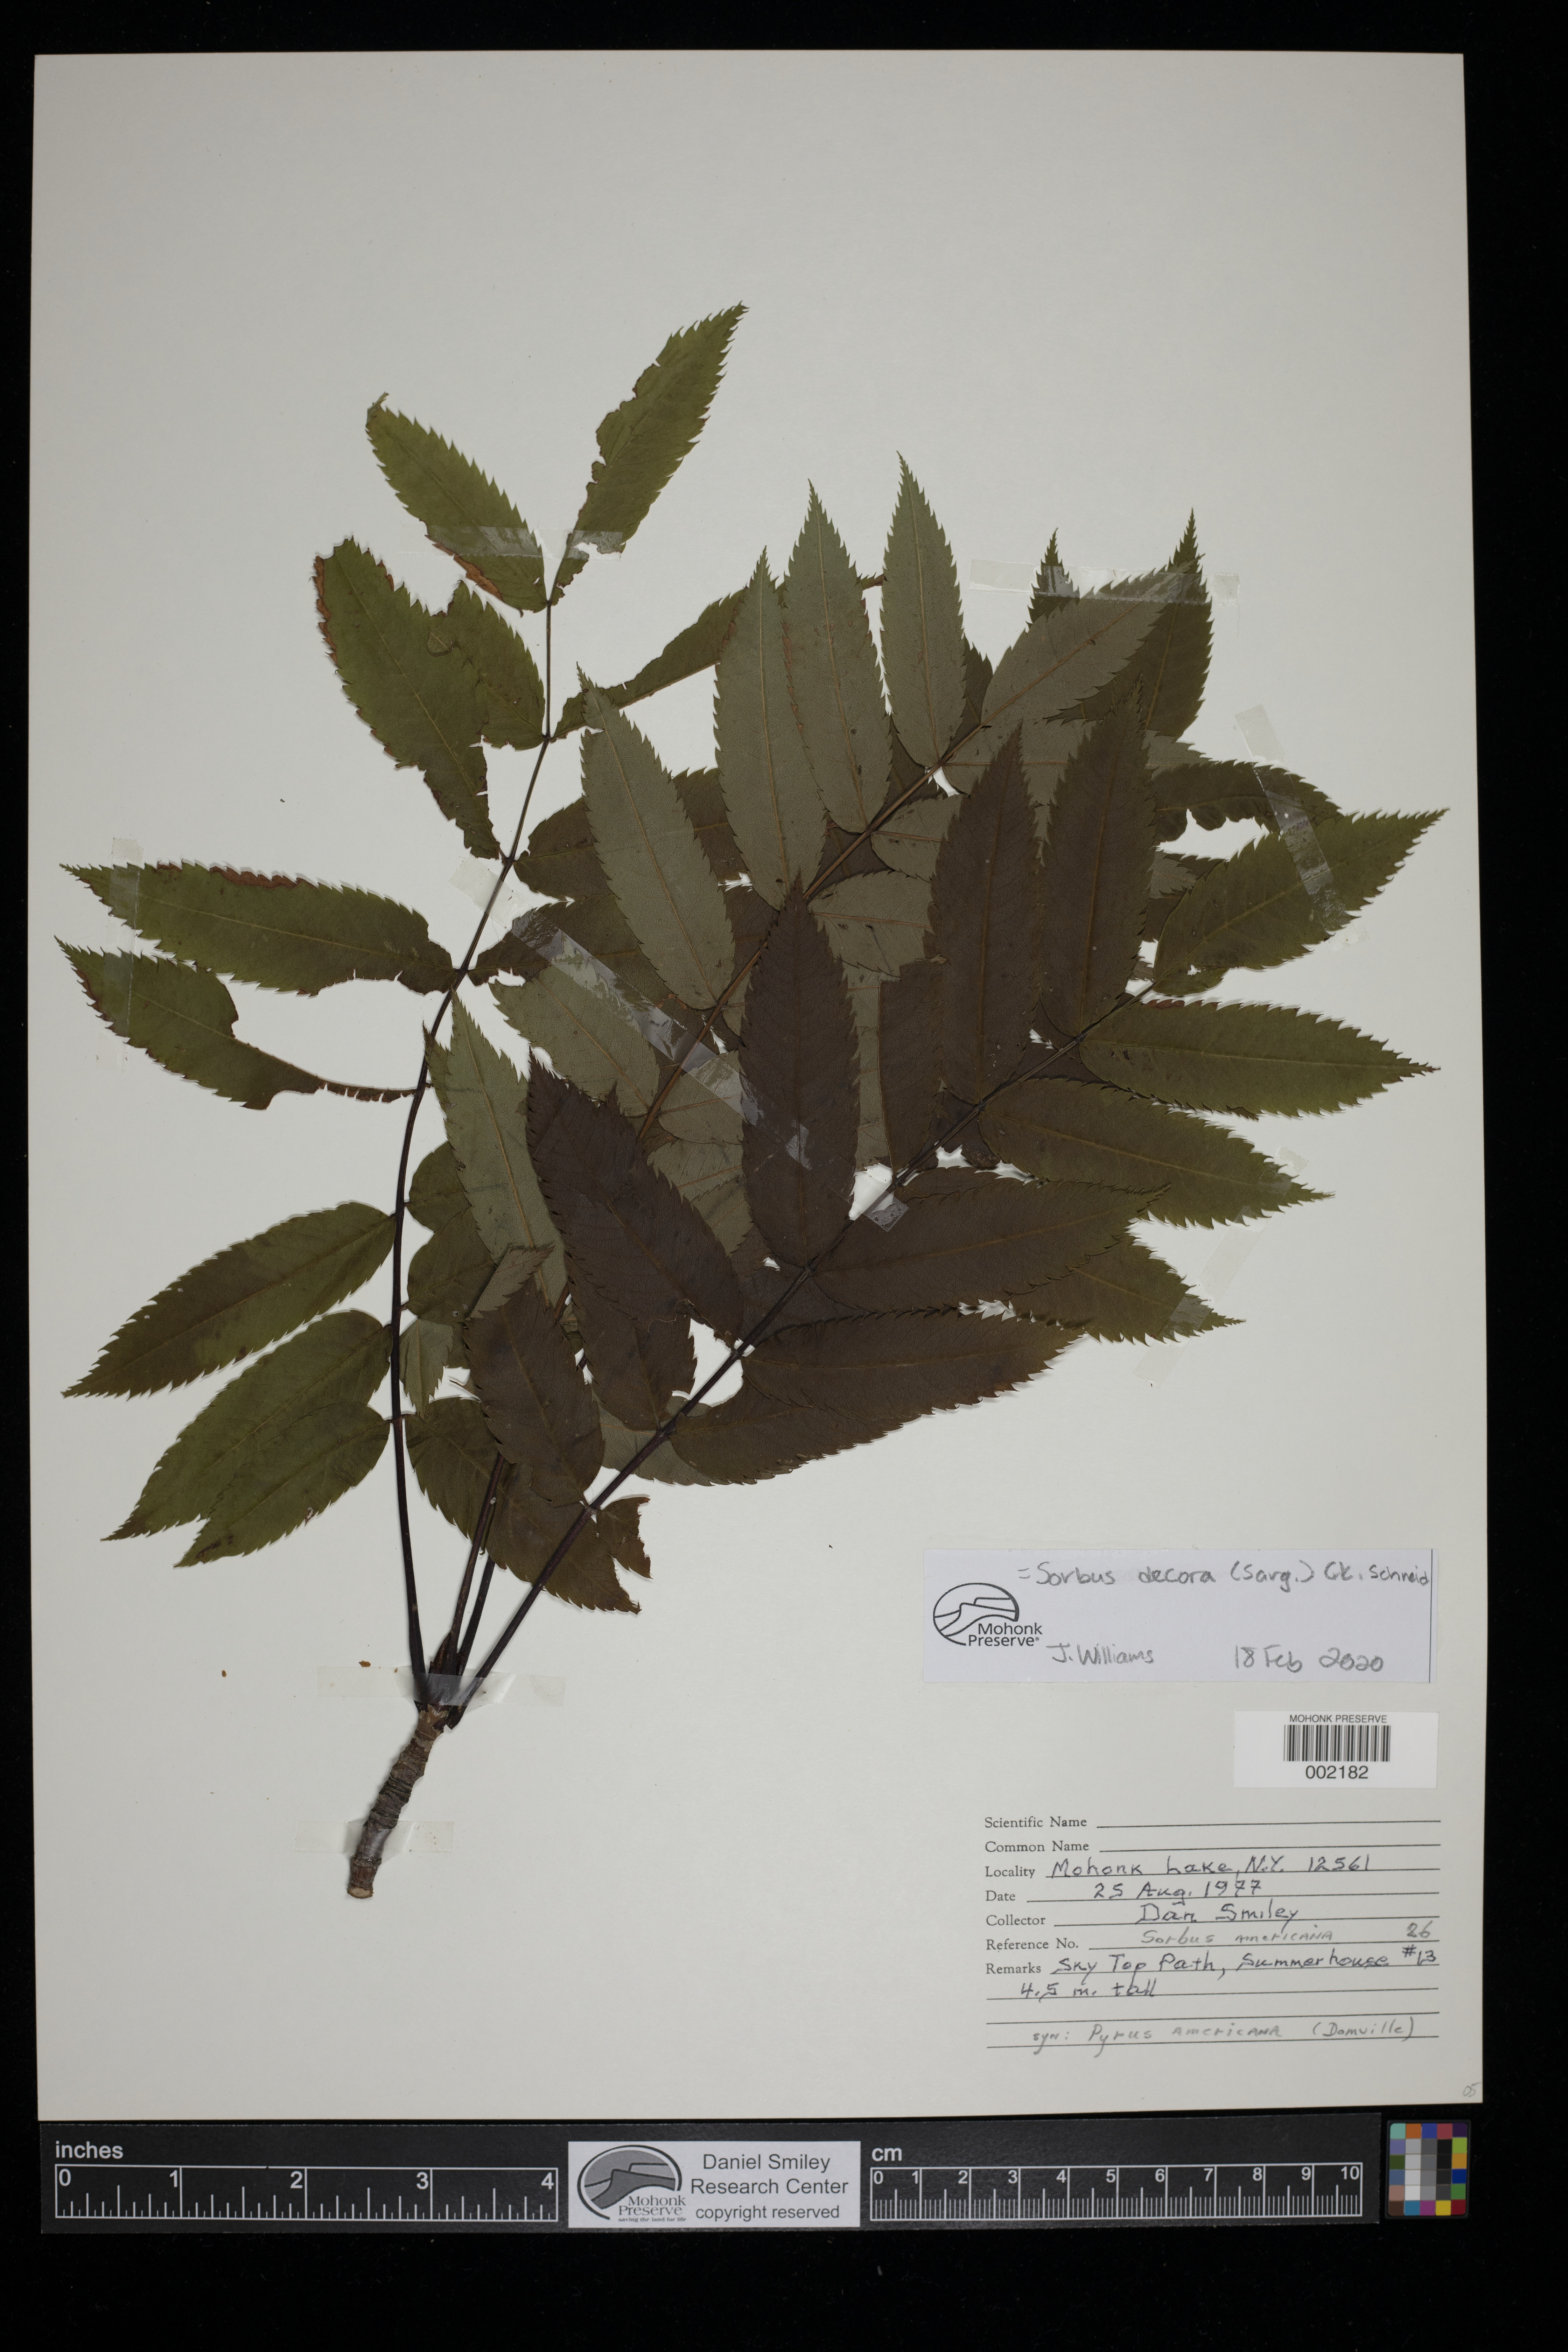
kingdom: Plantae
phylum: Tracheophyta
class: Magnoliopsida
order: Rosales
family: Rosaceae
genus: Sorbus
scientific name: Sorbus decora
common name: Northern mountain-ash
